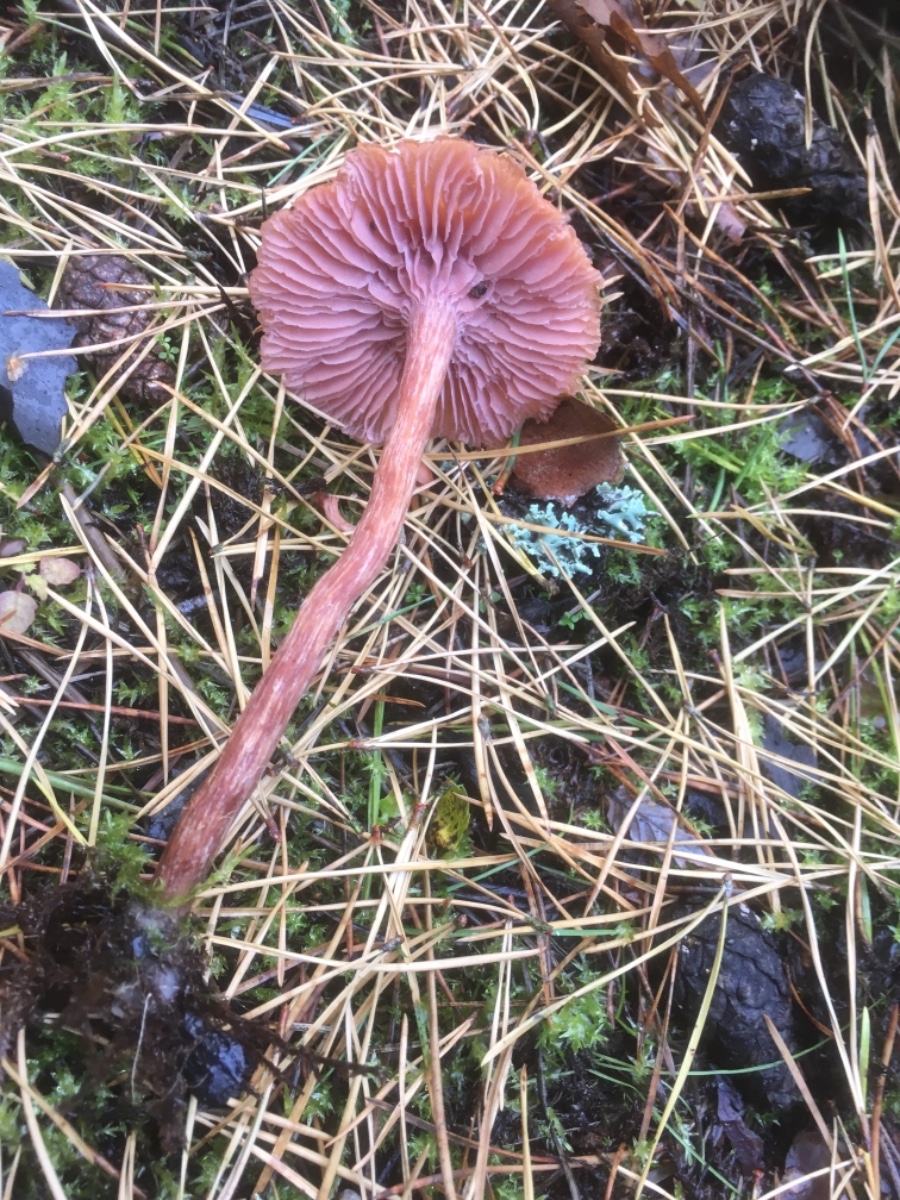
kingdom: Fungi
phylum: Basidiomycota
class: Agaricomycetes
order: Agaricales
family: Hydnangiaceae
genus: Laccaria
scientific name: Laccaria bicolor
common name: tvefarvet ametysthat
